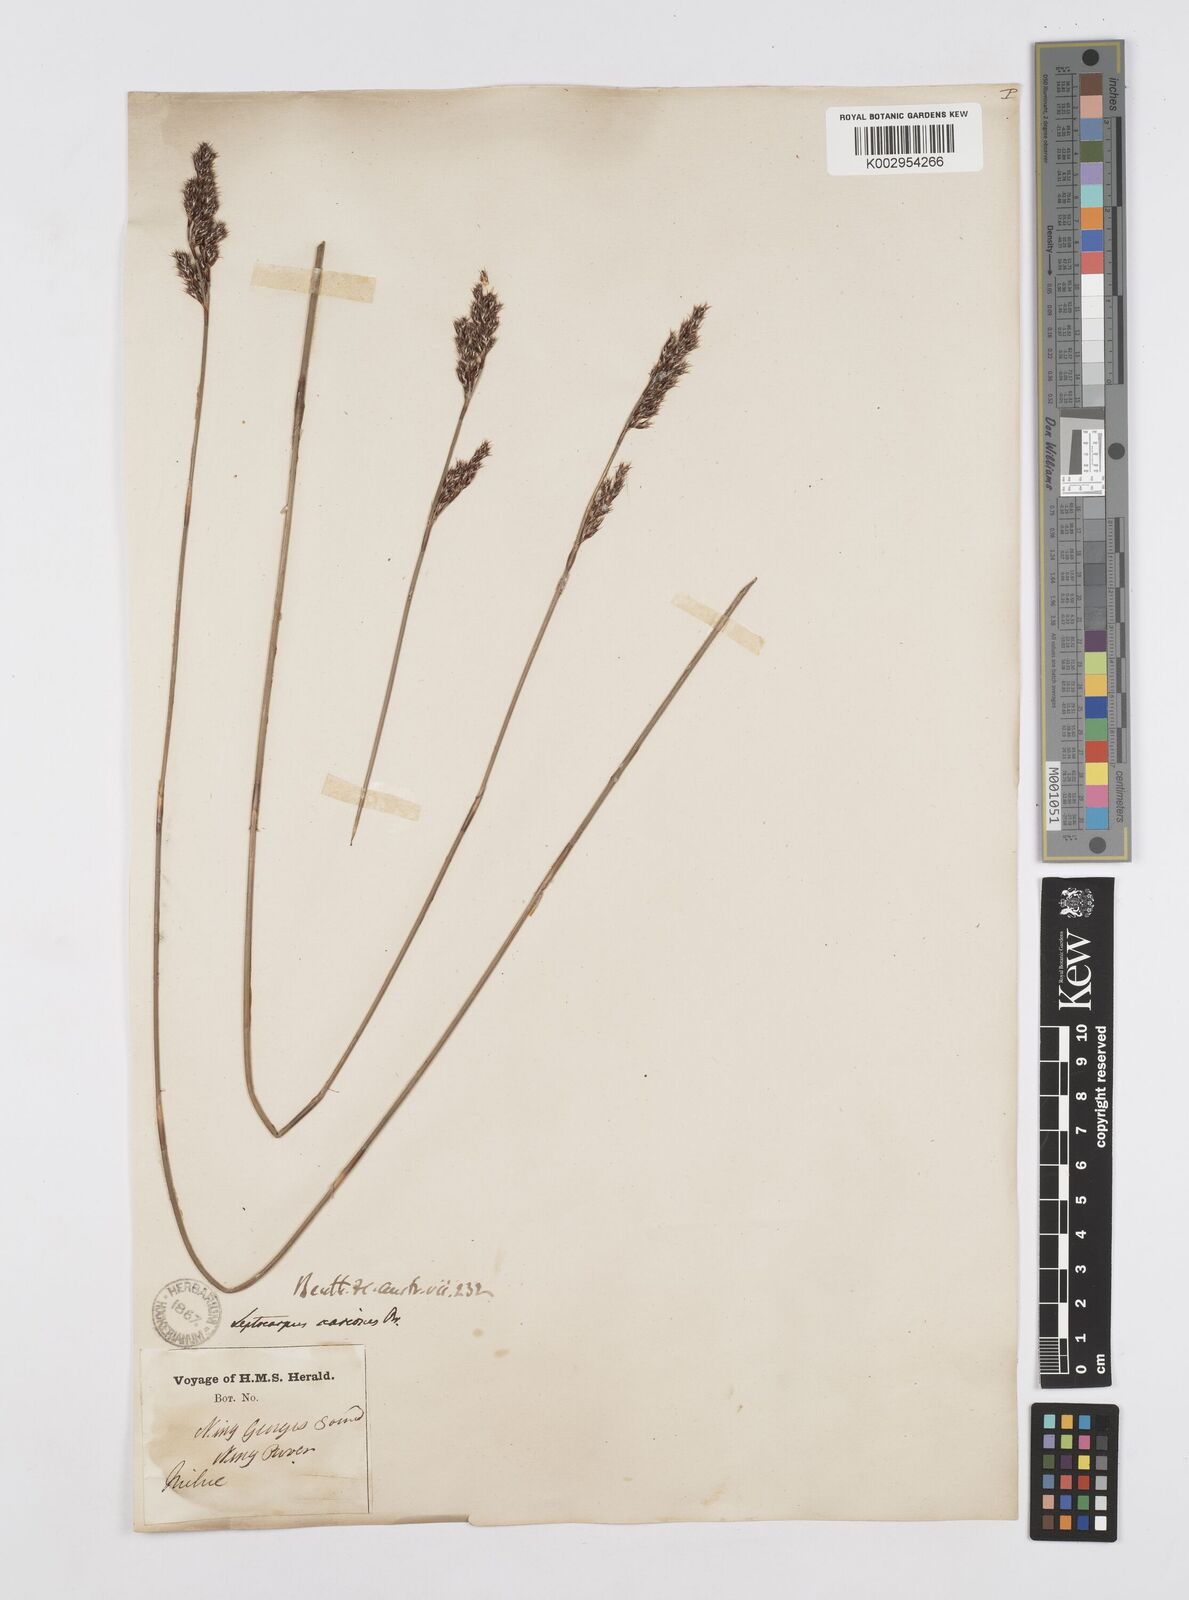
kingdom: Plantae
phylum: Tracheophyta
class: Liliopsida
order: Poales
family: Restionaceae
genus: Leptocarpus
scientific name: Leptocarpus scariosus
